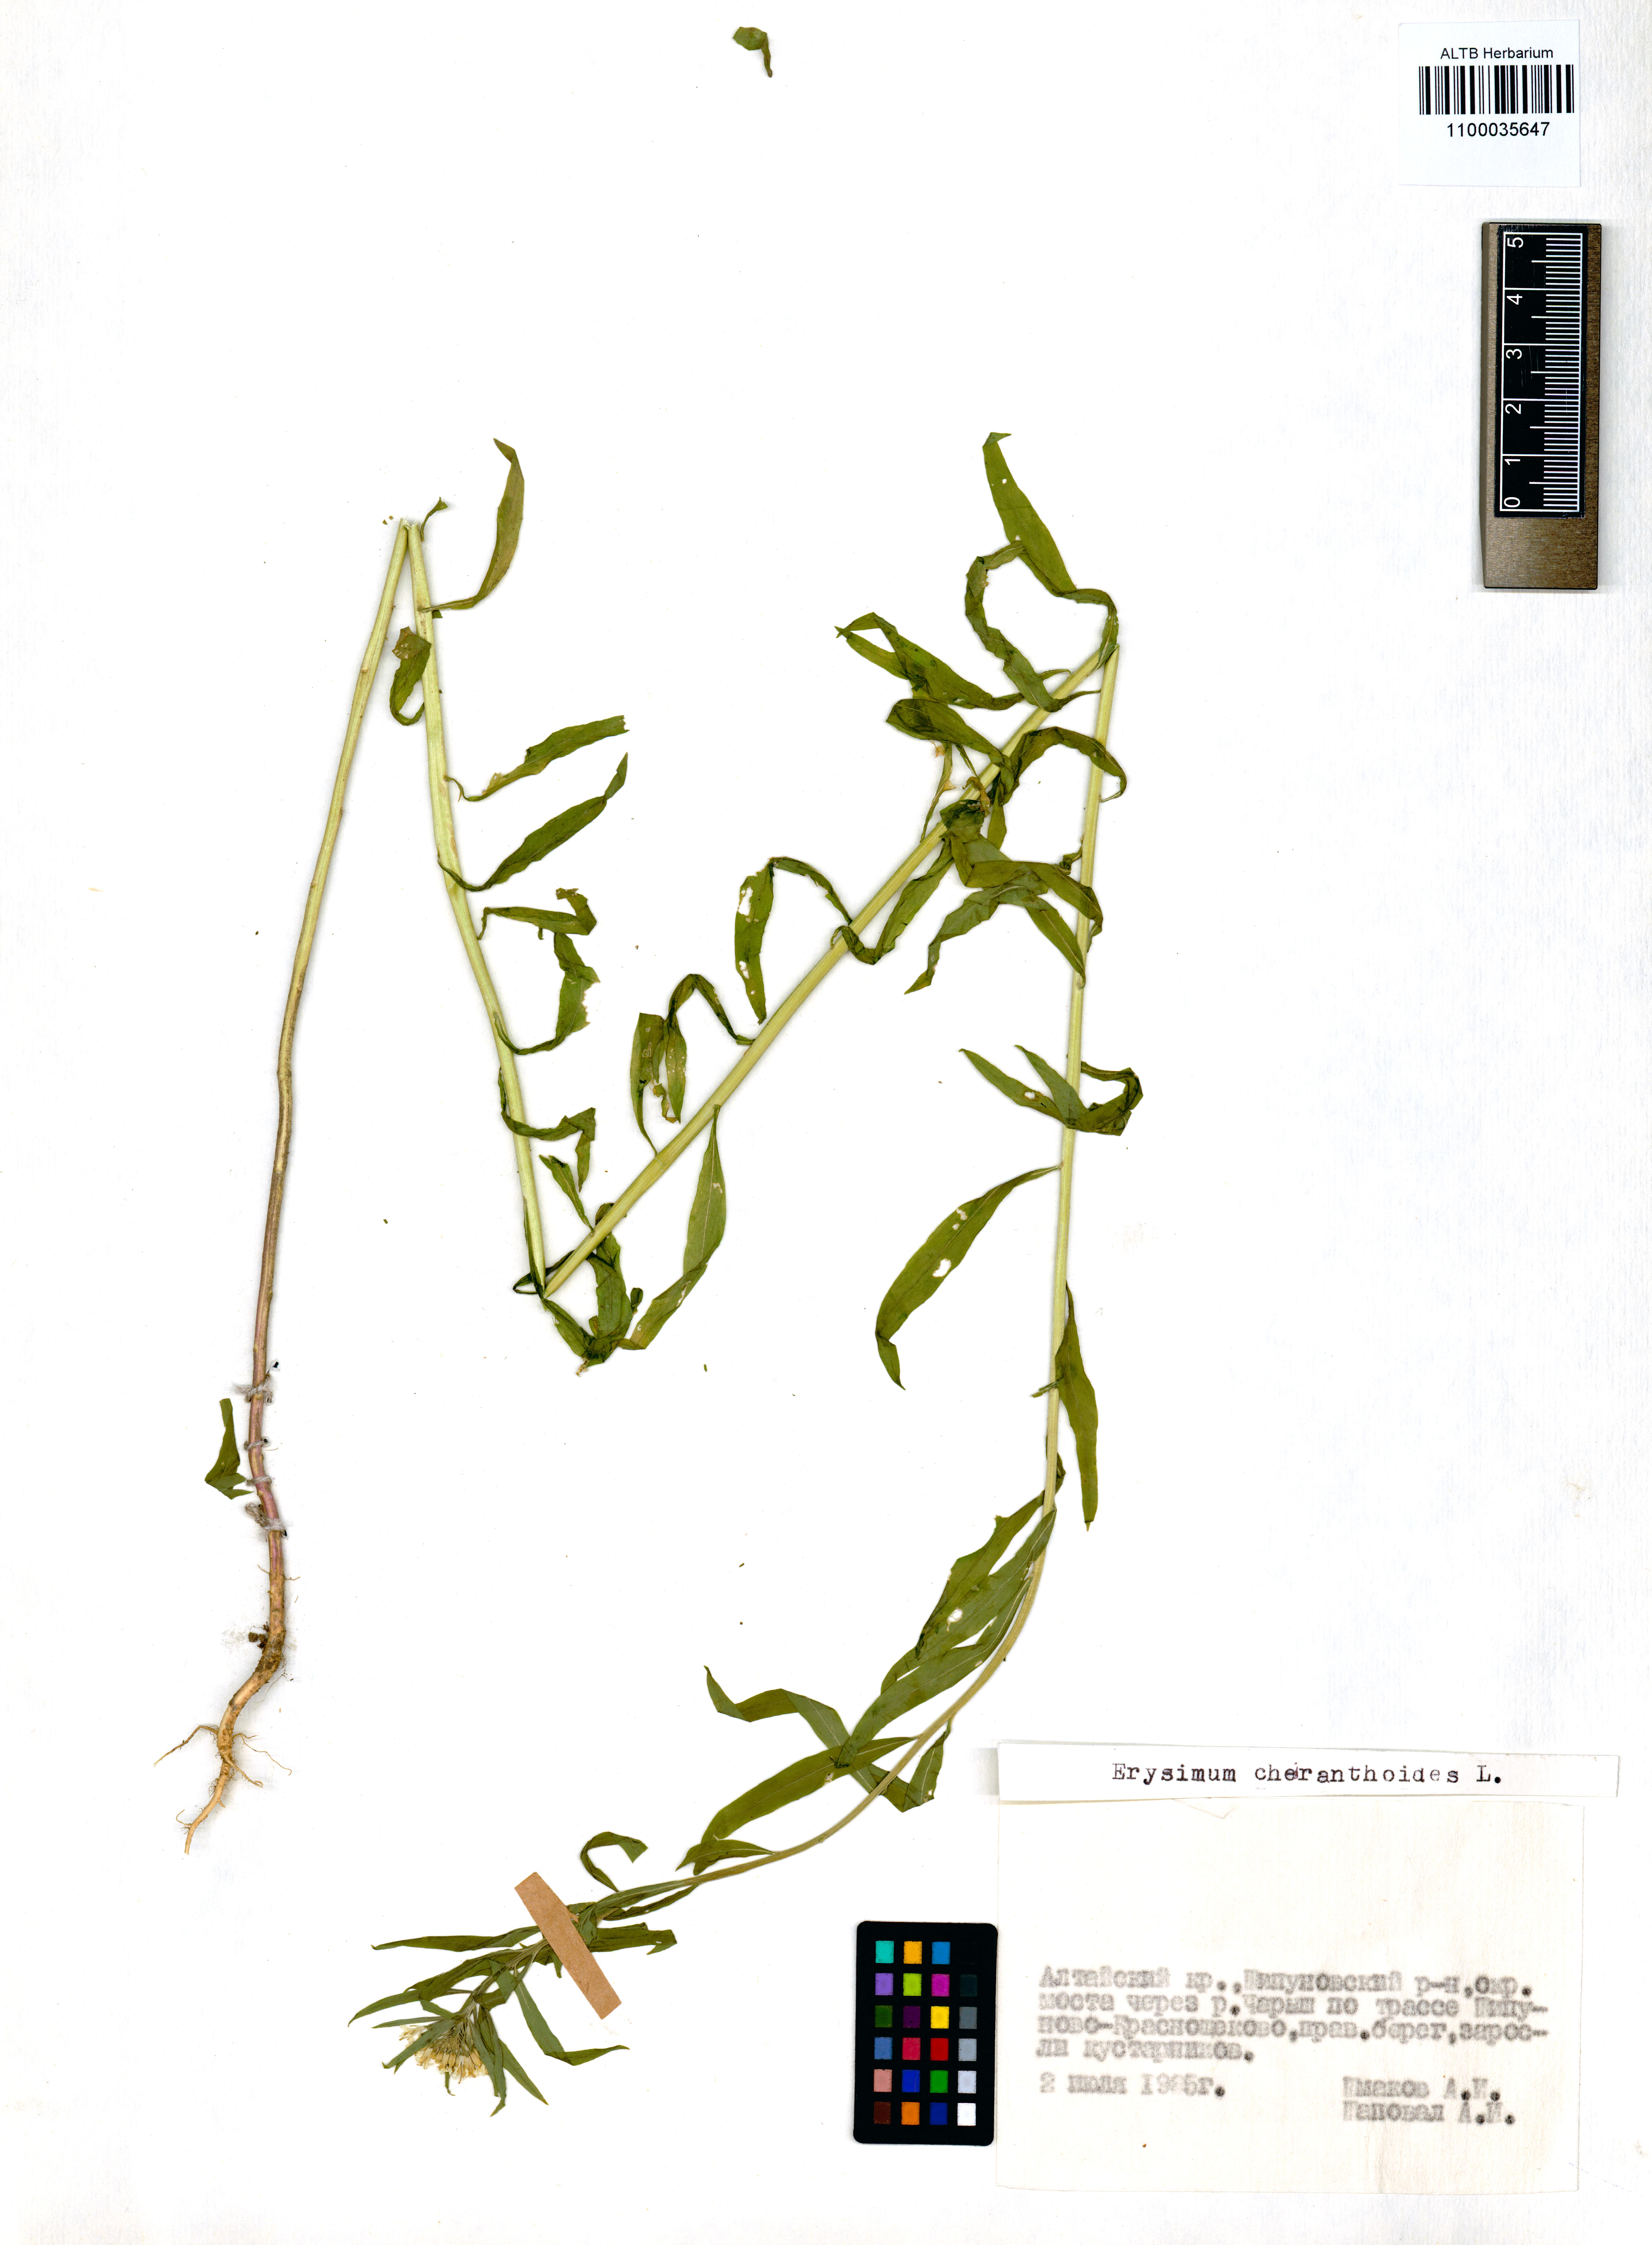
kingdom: Plantae
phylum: Tracheophyta
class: Magnoliopsida
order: Brassicales
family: Brassicaceae
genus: Erysimum
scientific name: Erysimum cheiranthoides
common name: Treacle mustard
